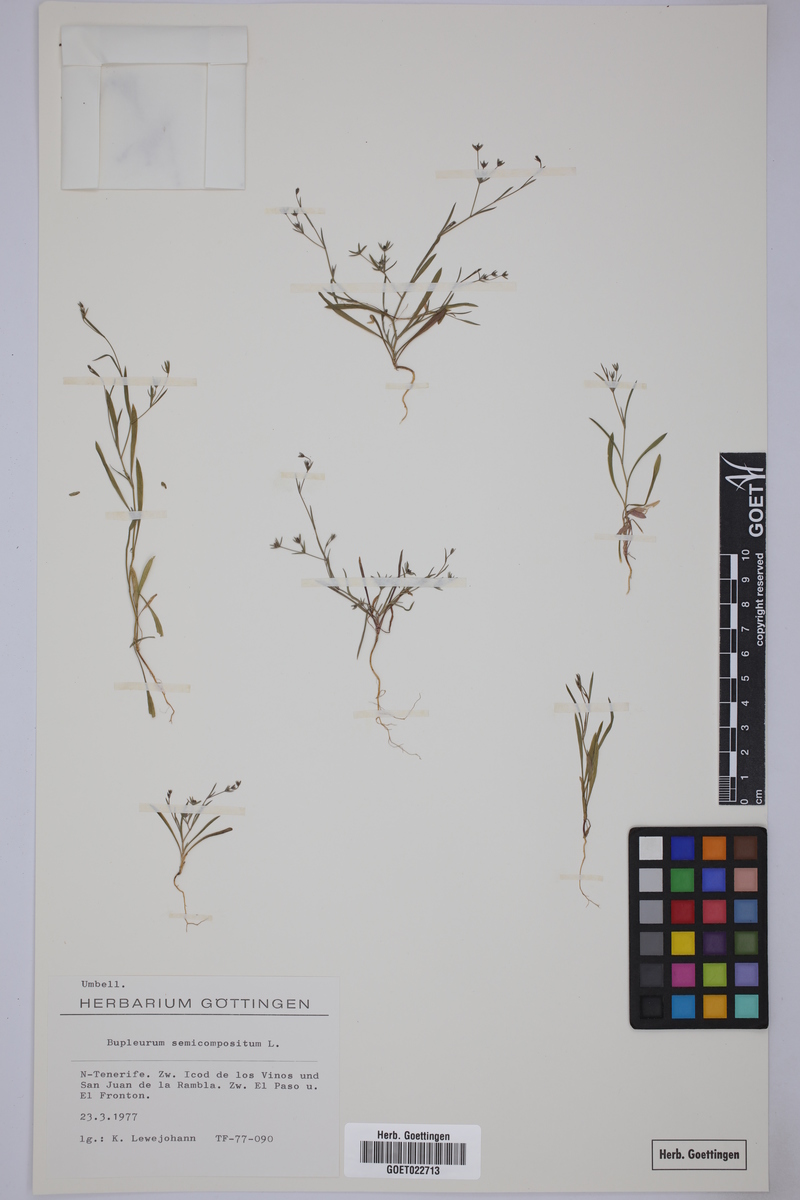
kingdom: Plantae
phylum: Tracheophyta
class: Magnoliopsida
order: Apiales
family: Apiaceae
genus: Bupleurum
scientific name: Bupleurum semicompositum
